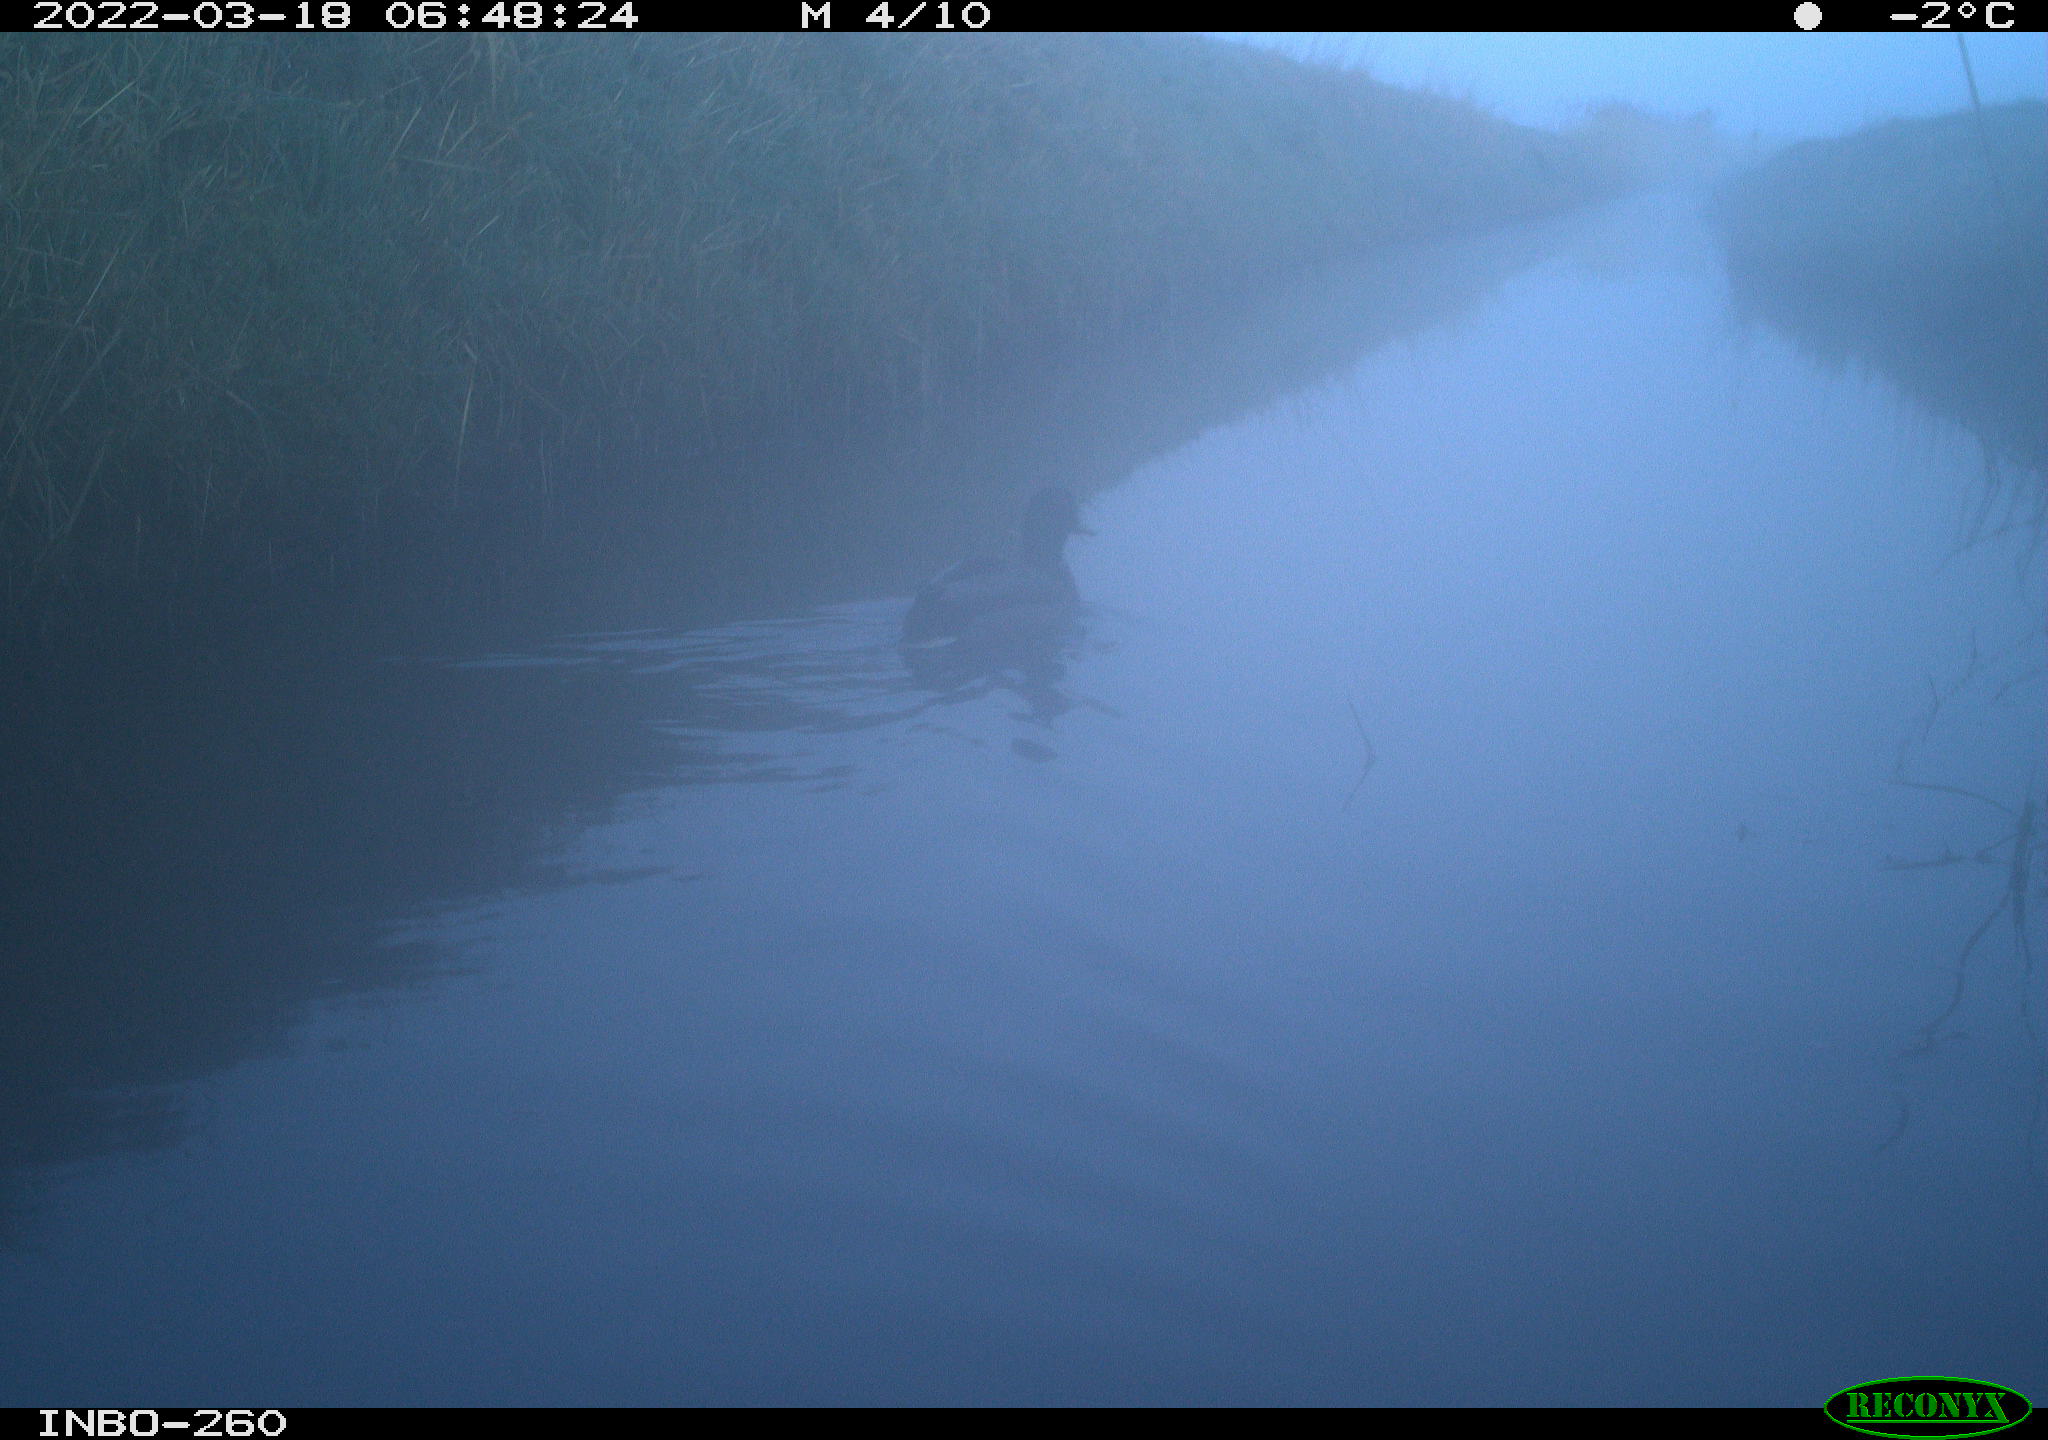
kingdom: Animalia
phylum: Chordata
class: Aves
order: Anseriformes
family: Anatidae
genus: Anas
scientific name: Anas platyrhynchos
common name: Mallard
